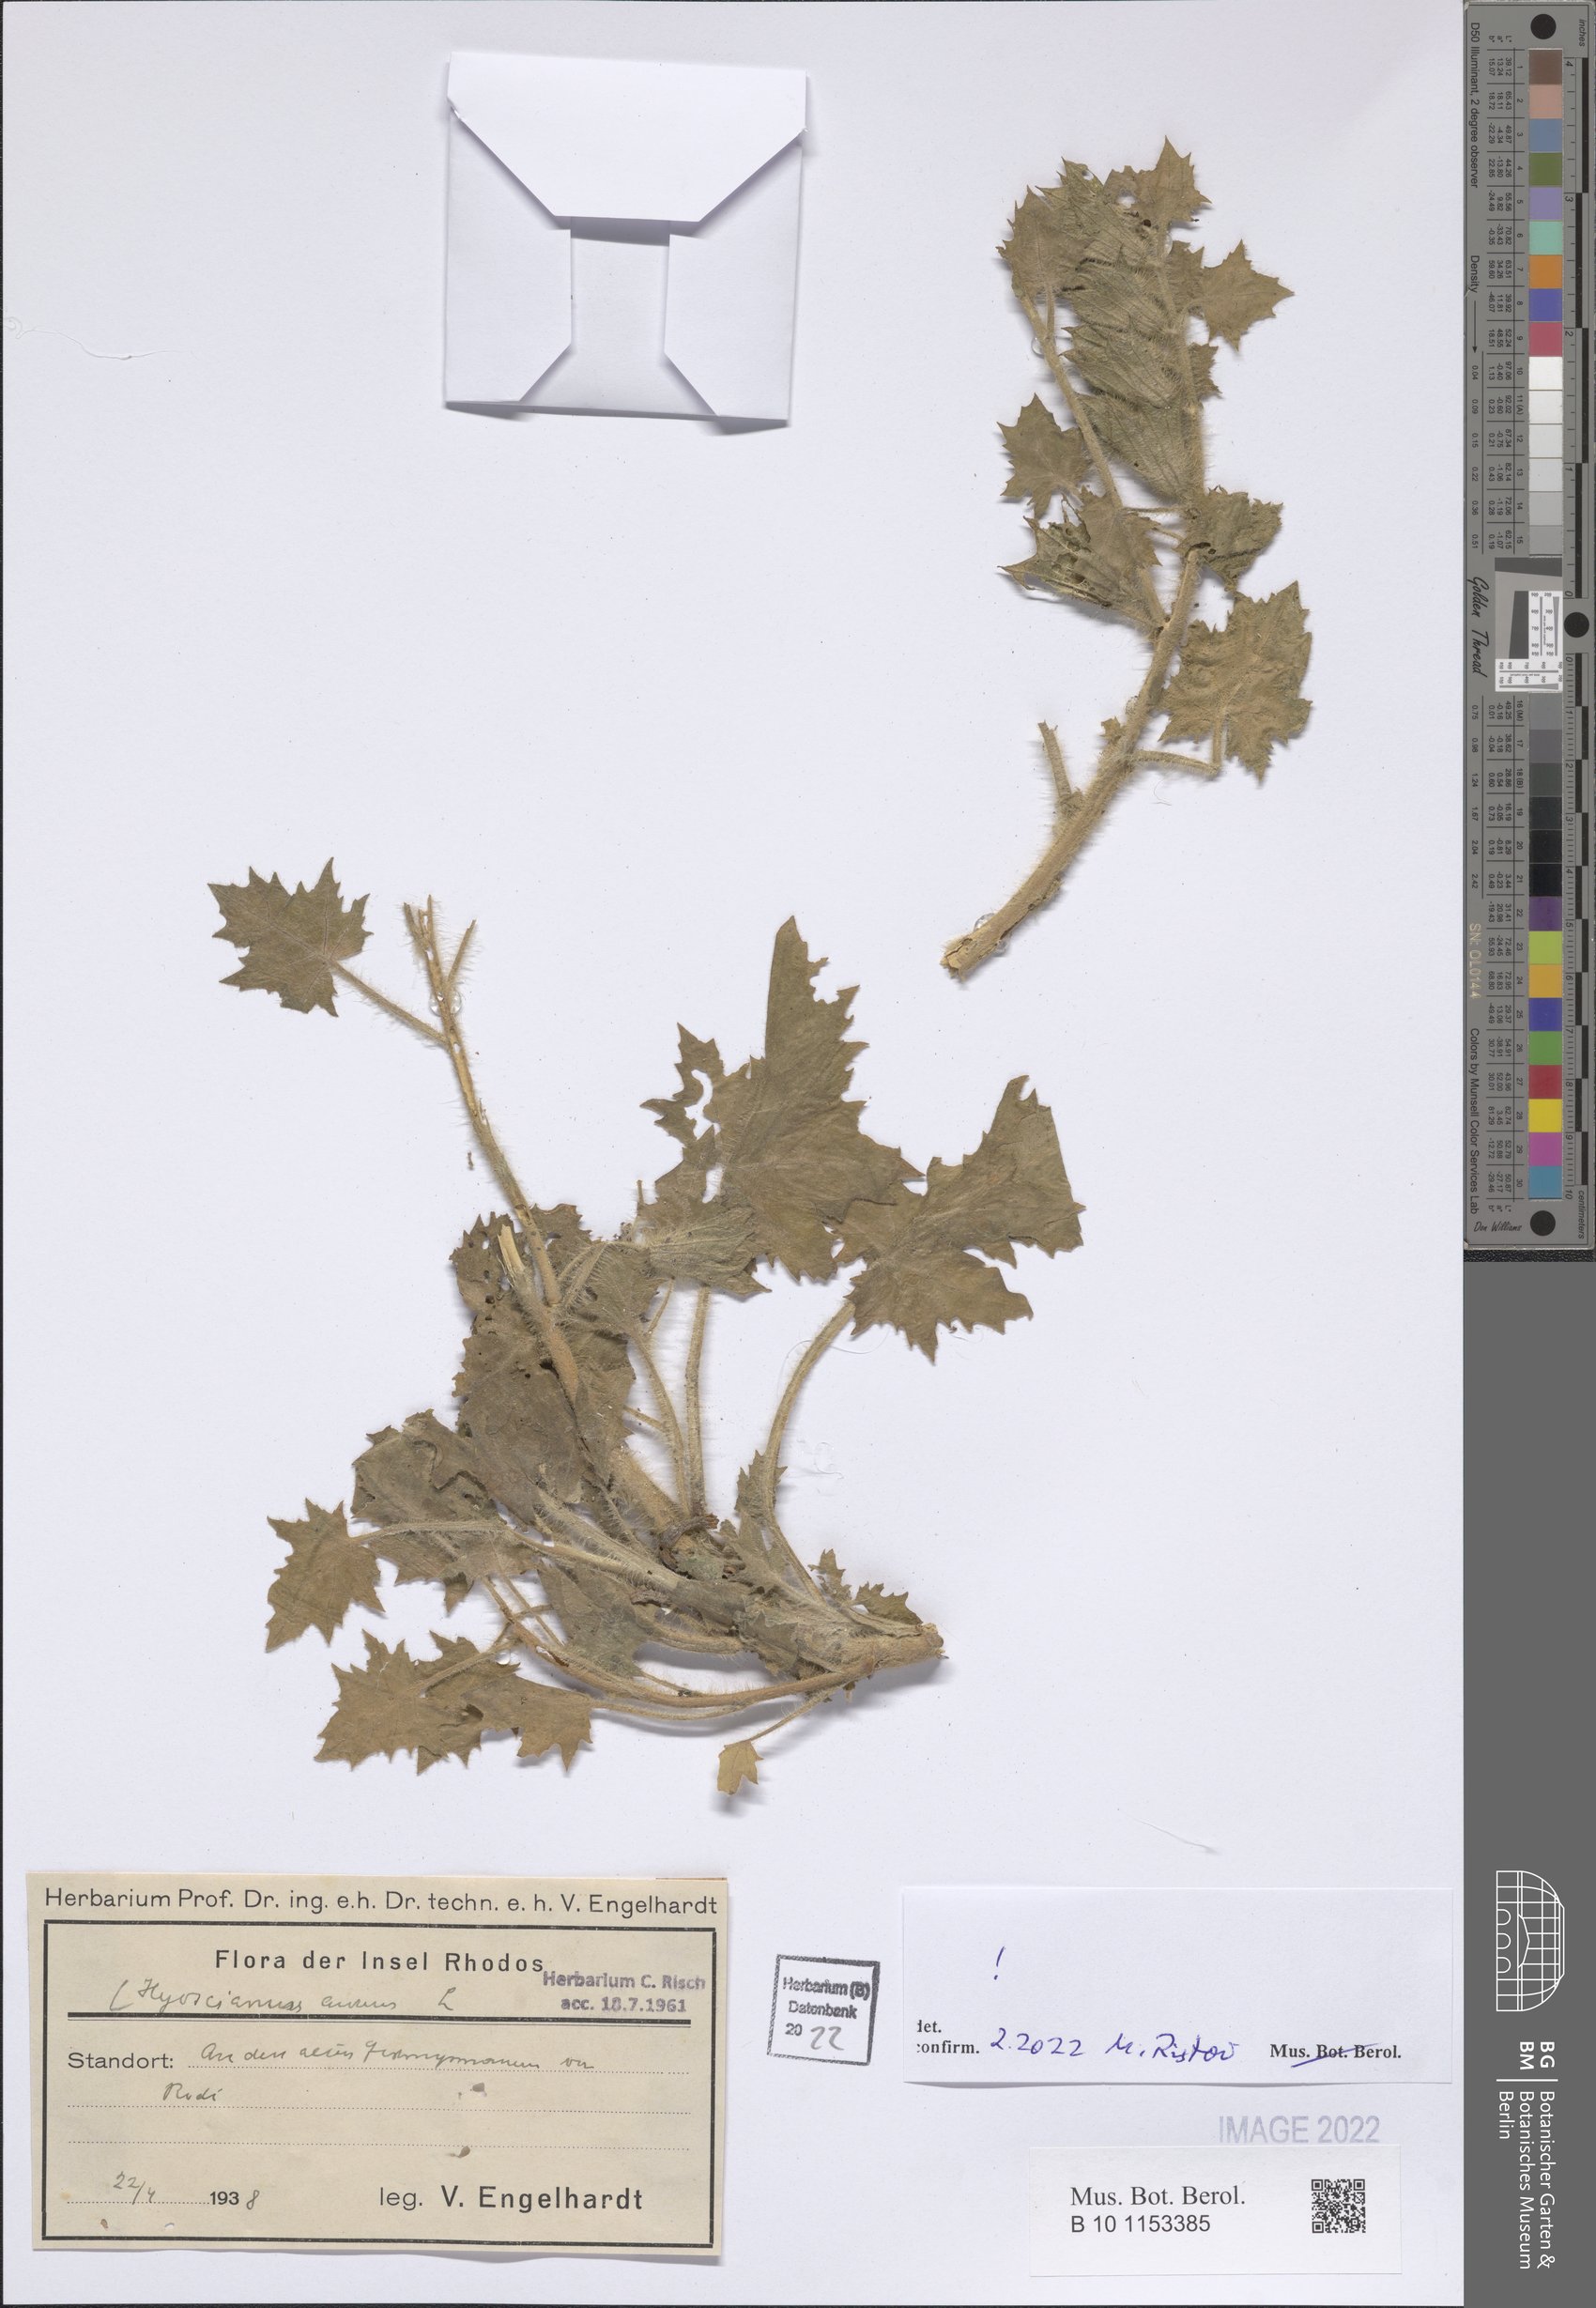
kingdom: Plantae
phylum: Tracheophyta
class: Magnoliopsida
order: Solanales
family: Solanaceae
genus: Hyoscyamus
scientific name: Hyoscyamus aureus
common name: Golden henbane
